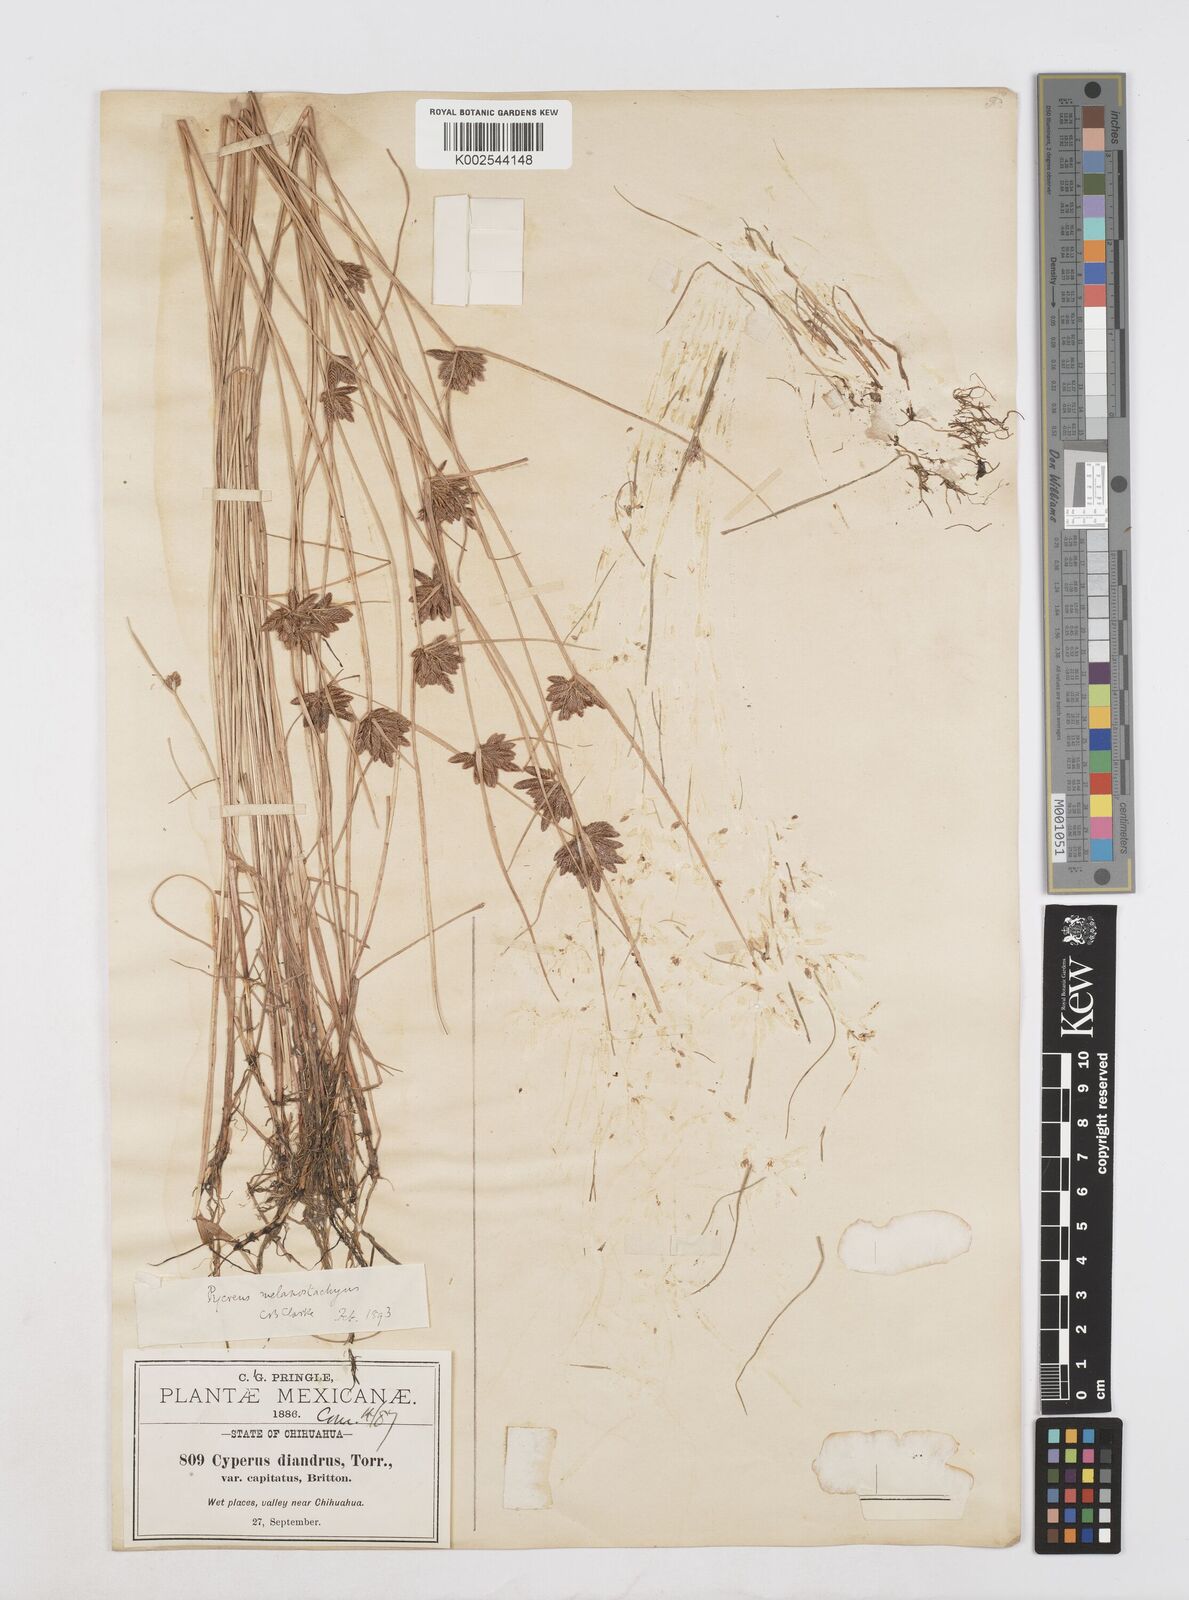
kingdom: Plantae
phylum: Tracheophyta
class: Liliopsida
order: Poales
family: Cyperaceae
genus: Cyperus
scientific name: Cyperus melanostachyus
